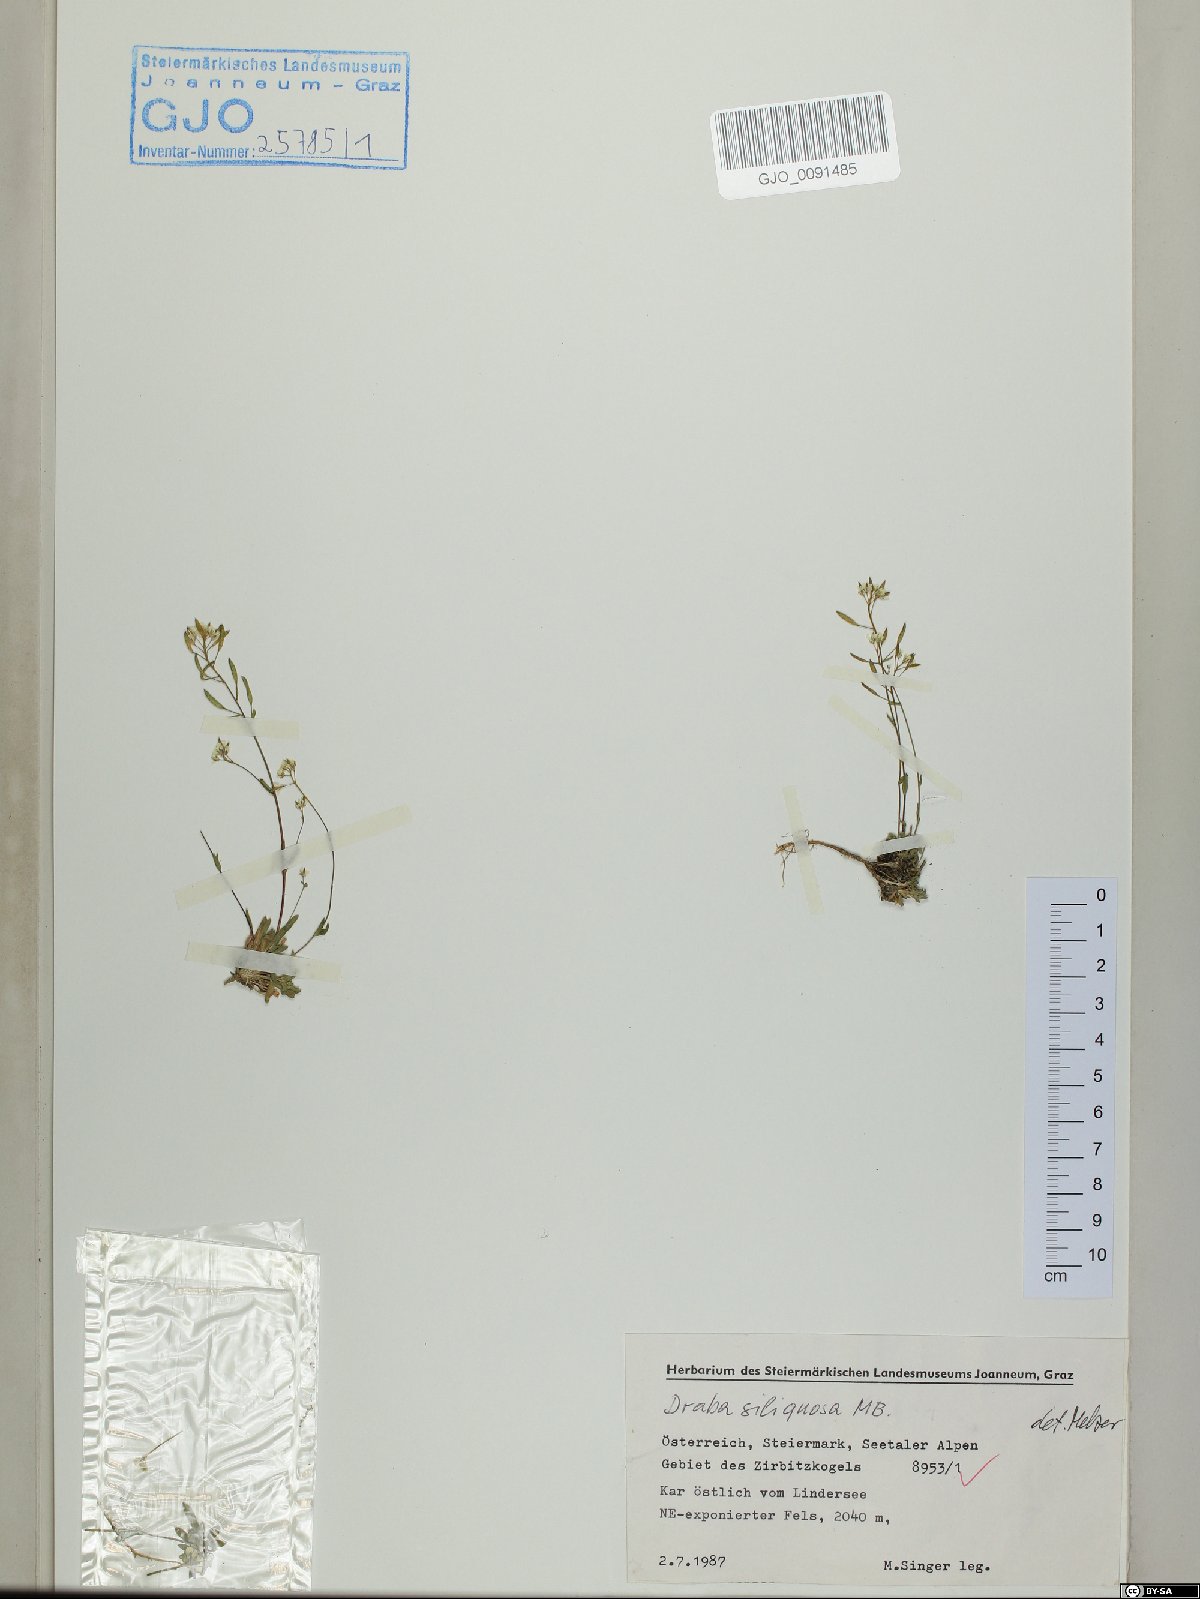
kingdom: Plantae
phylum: Tracheophyta
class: Magnoliopsida
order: Brassicales
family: Brassicaceae
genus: Draba
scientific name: Draba siliquosa
